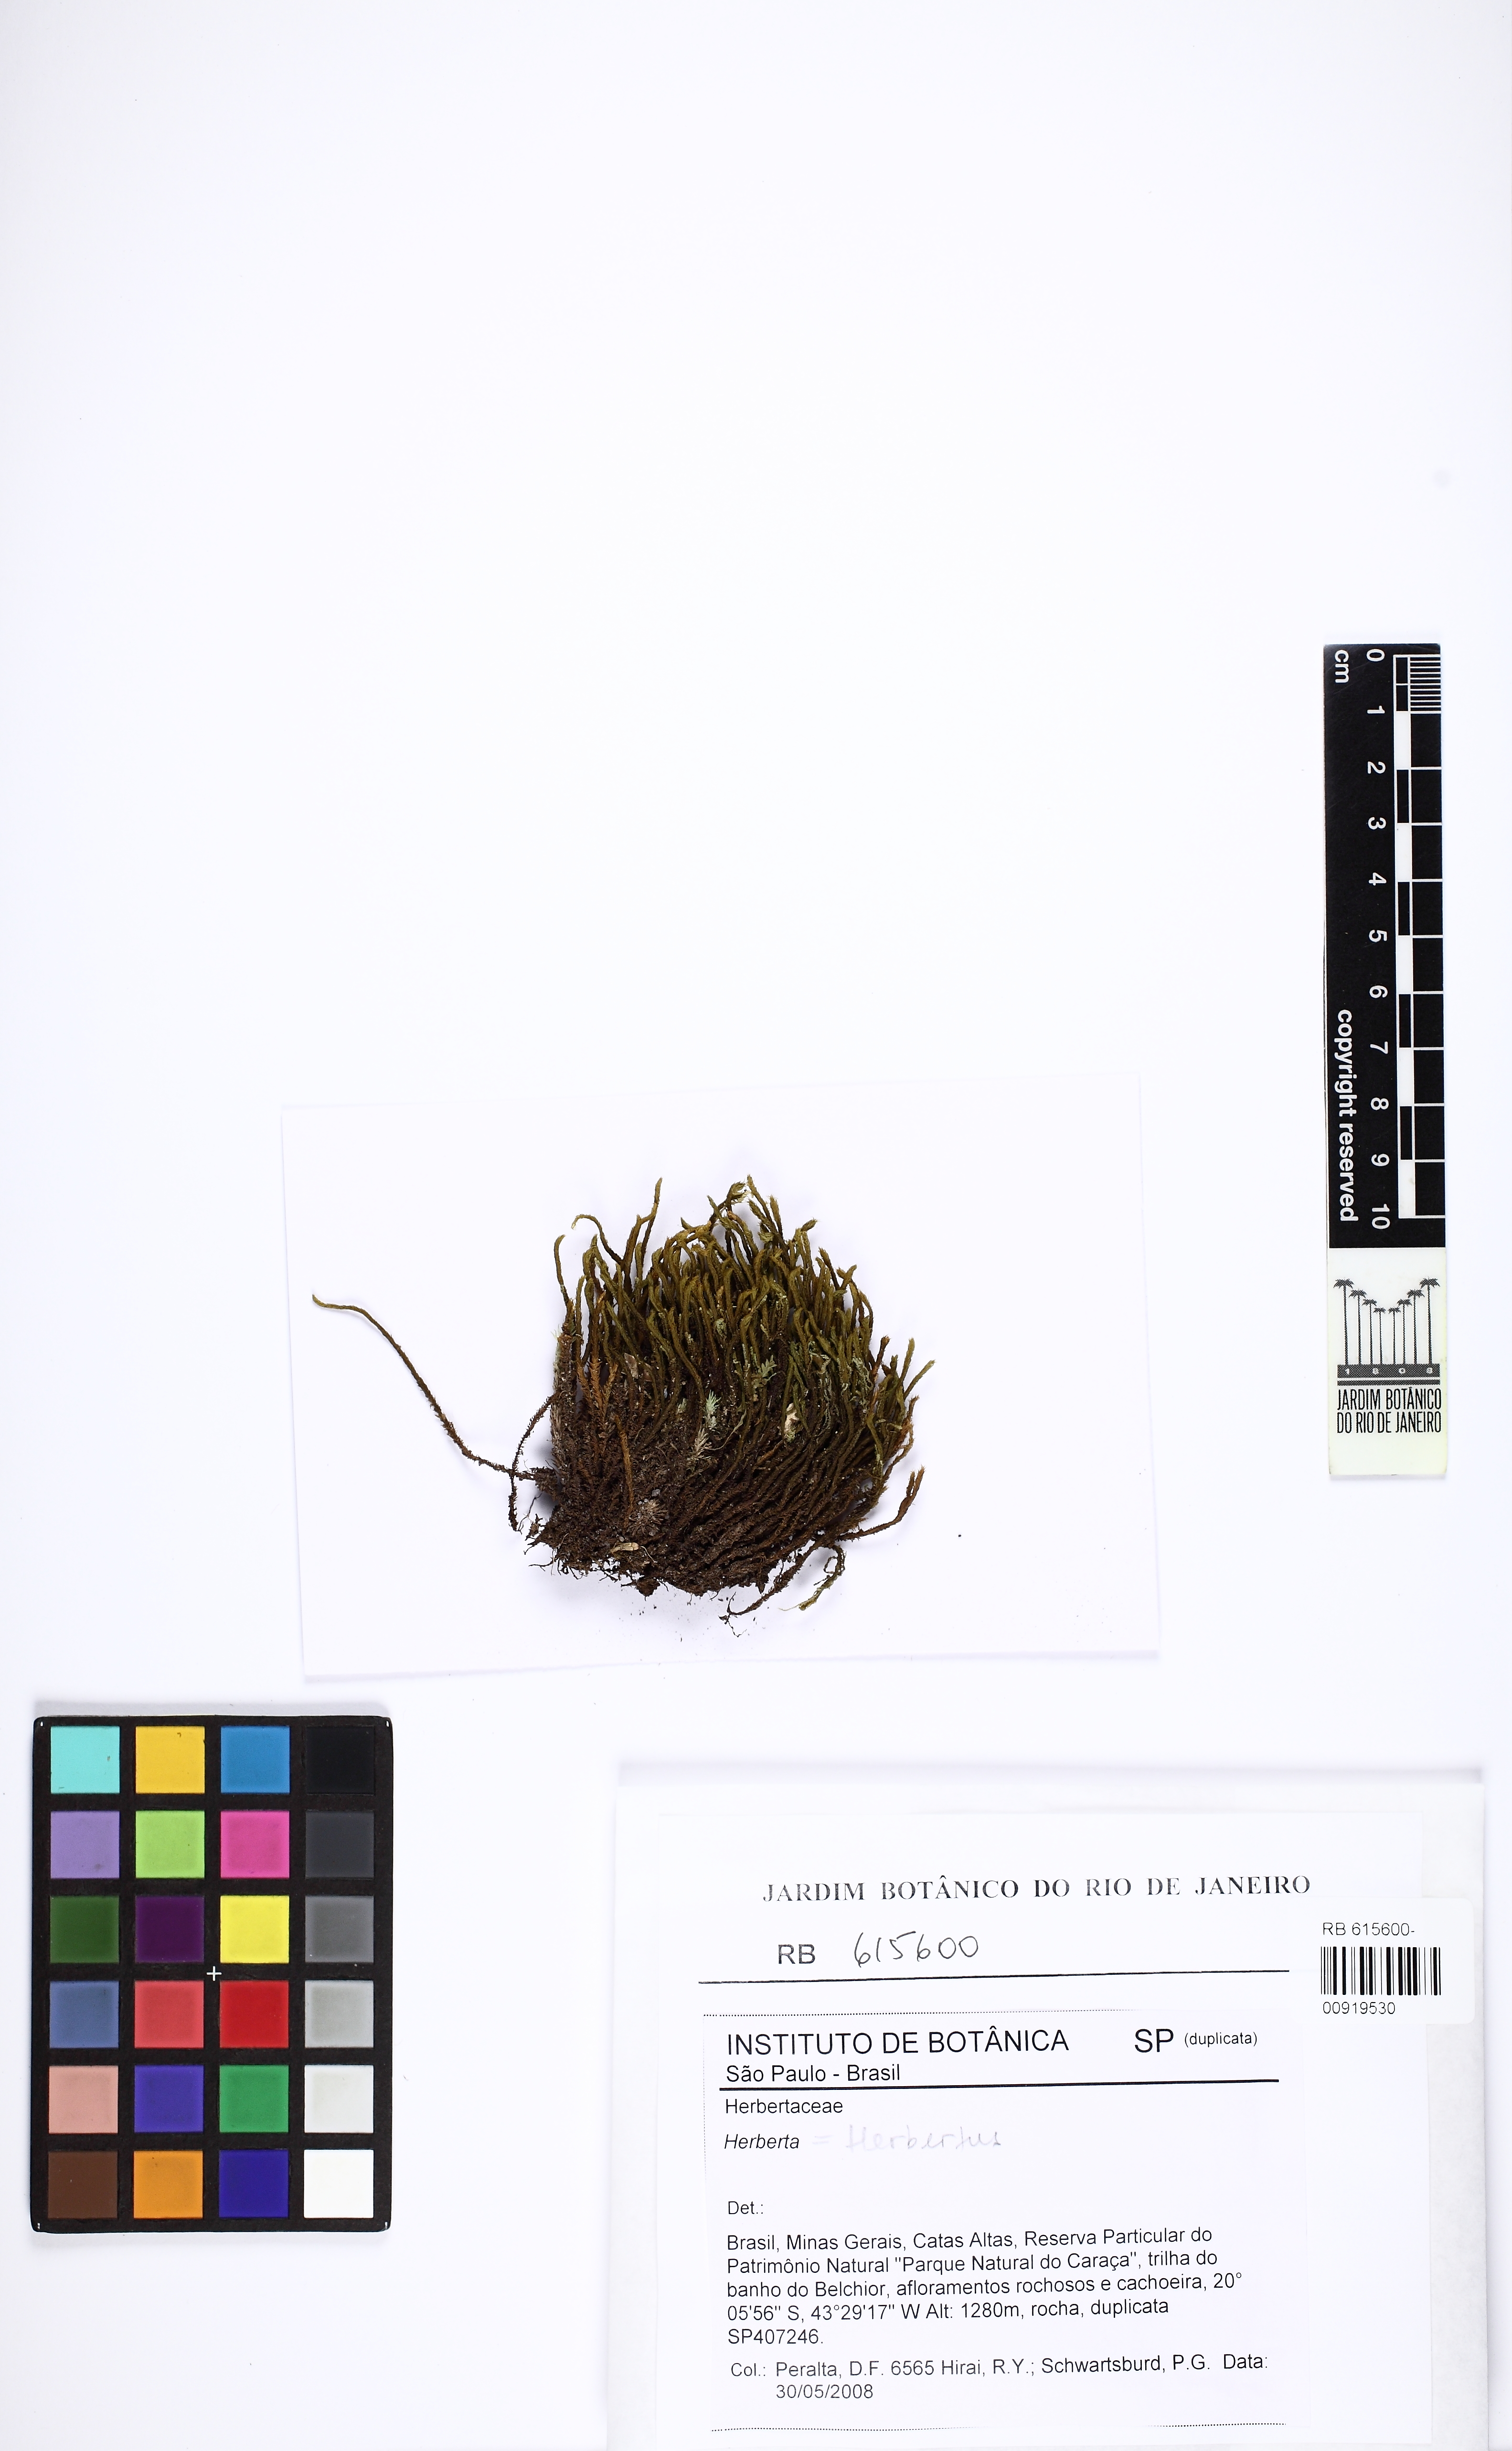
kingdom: Plantae
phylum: Marchantiophyta
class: Jungermanniopsida
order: Jungermanniales
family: Herbertaceae
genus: Herbertus
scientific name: Herbertus
